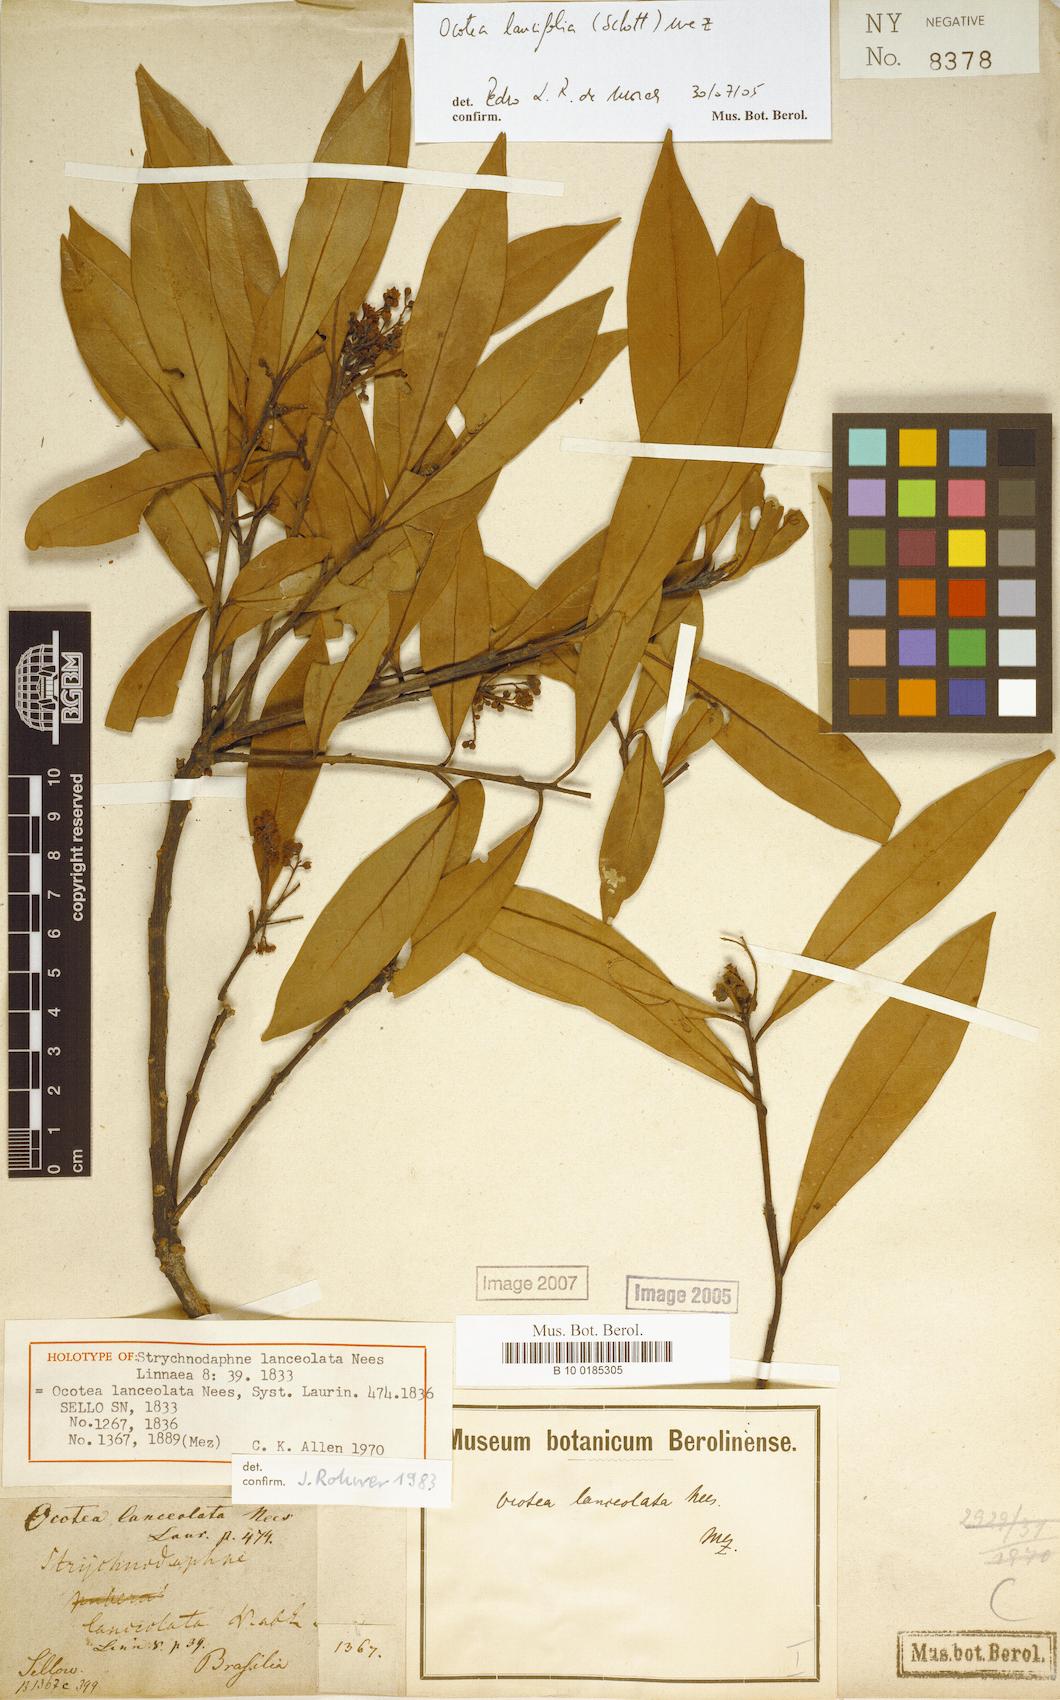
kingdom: Plantae
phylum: Tracheophyta
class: Magnoliopsida
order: Laurales
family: Lauraceae
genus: Ocotea
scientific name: Ocotea lancifolia
